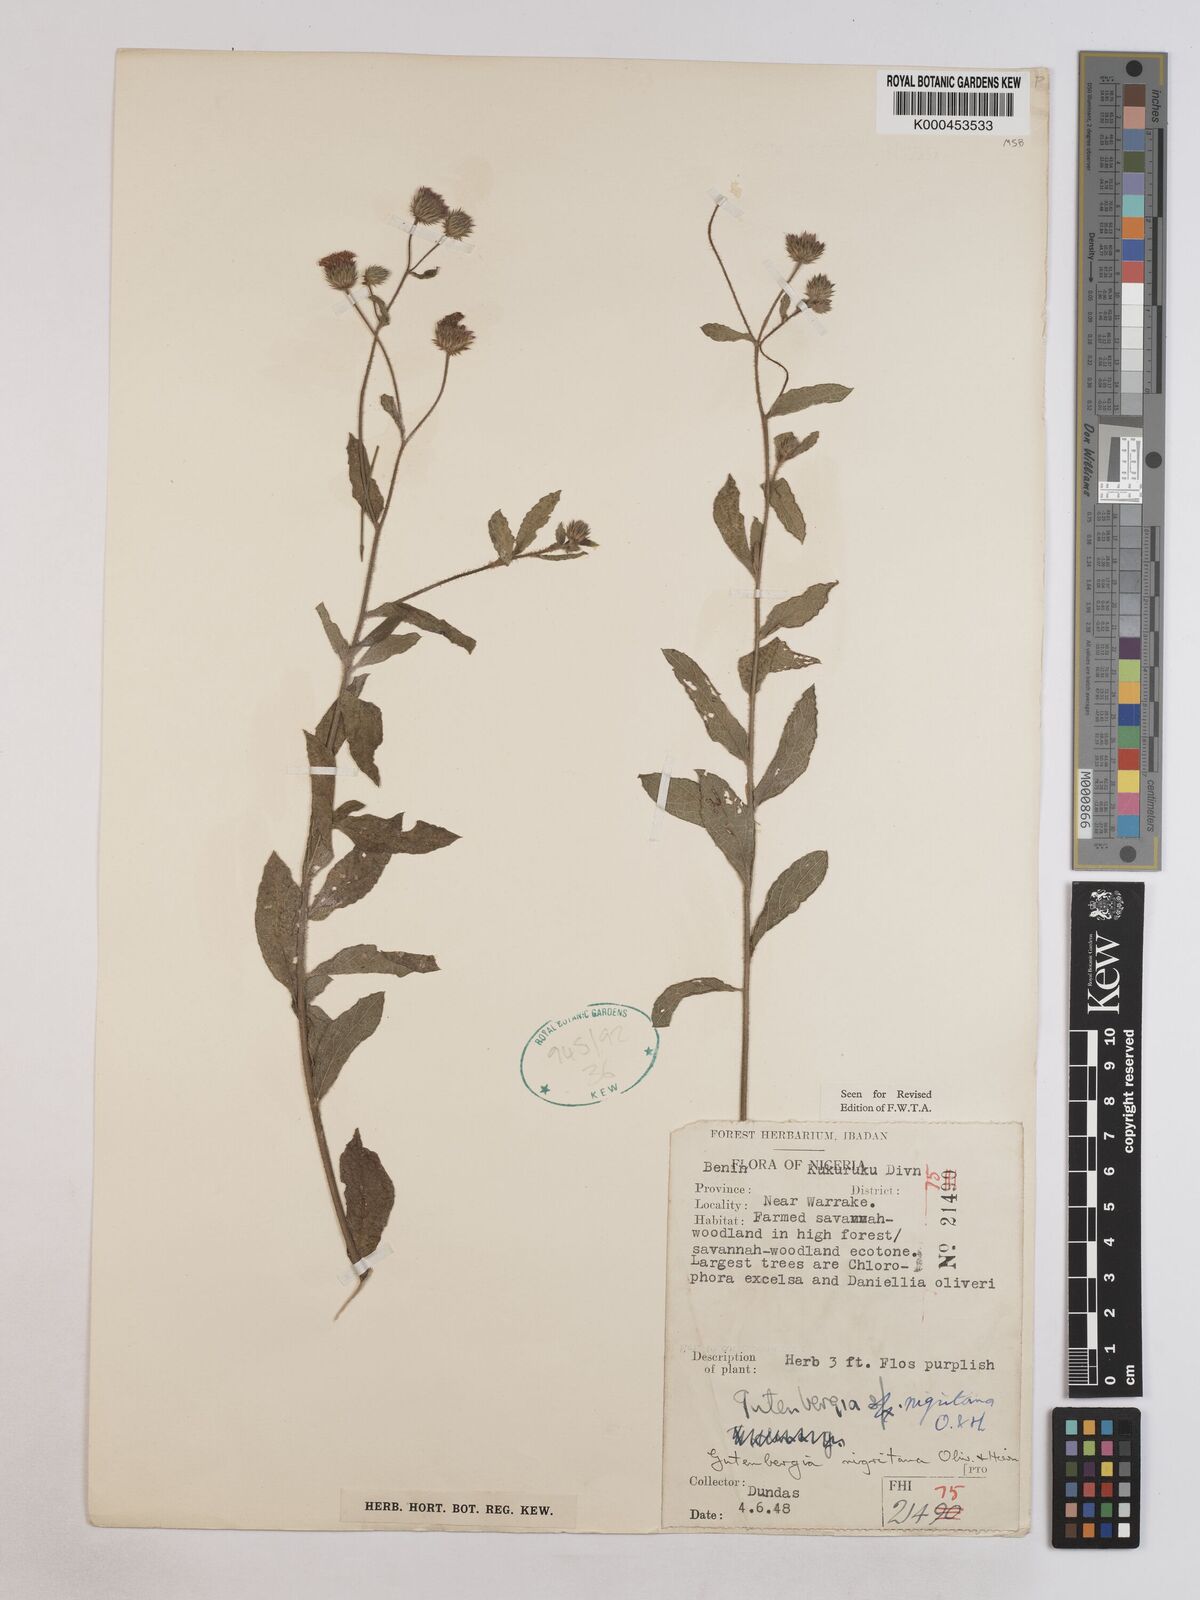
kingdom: Plantae
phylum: Tracheophyta
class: Magnoliopsida
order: Asterales
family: Asteraceae
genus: Kinghamia
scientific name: Kinghamia nigritana
